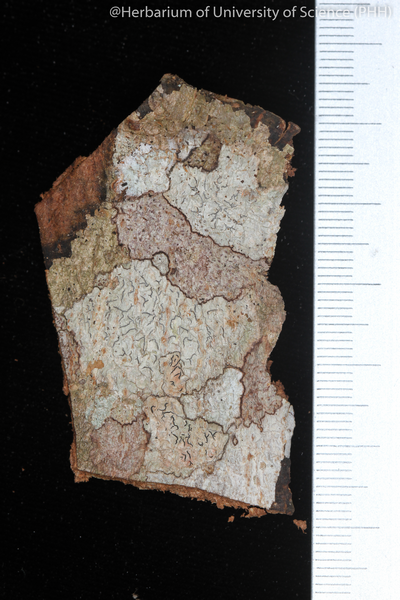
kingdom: Fungi
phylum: Ascomycota
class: Lecanoromycetes
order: Ostropales
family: Graphidaceae
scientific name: Graphidaceae
